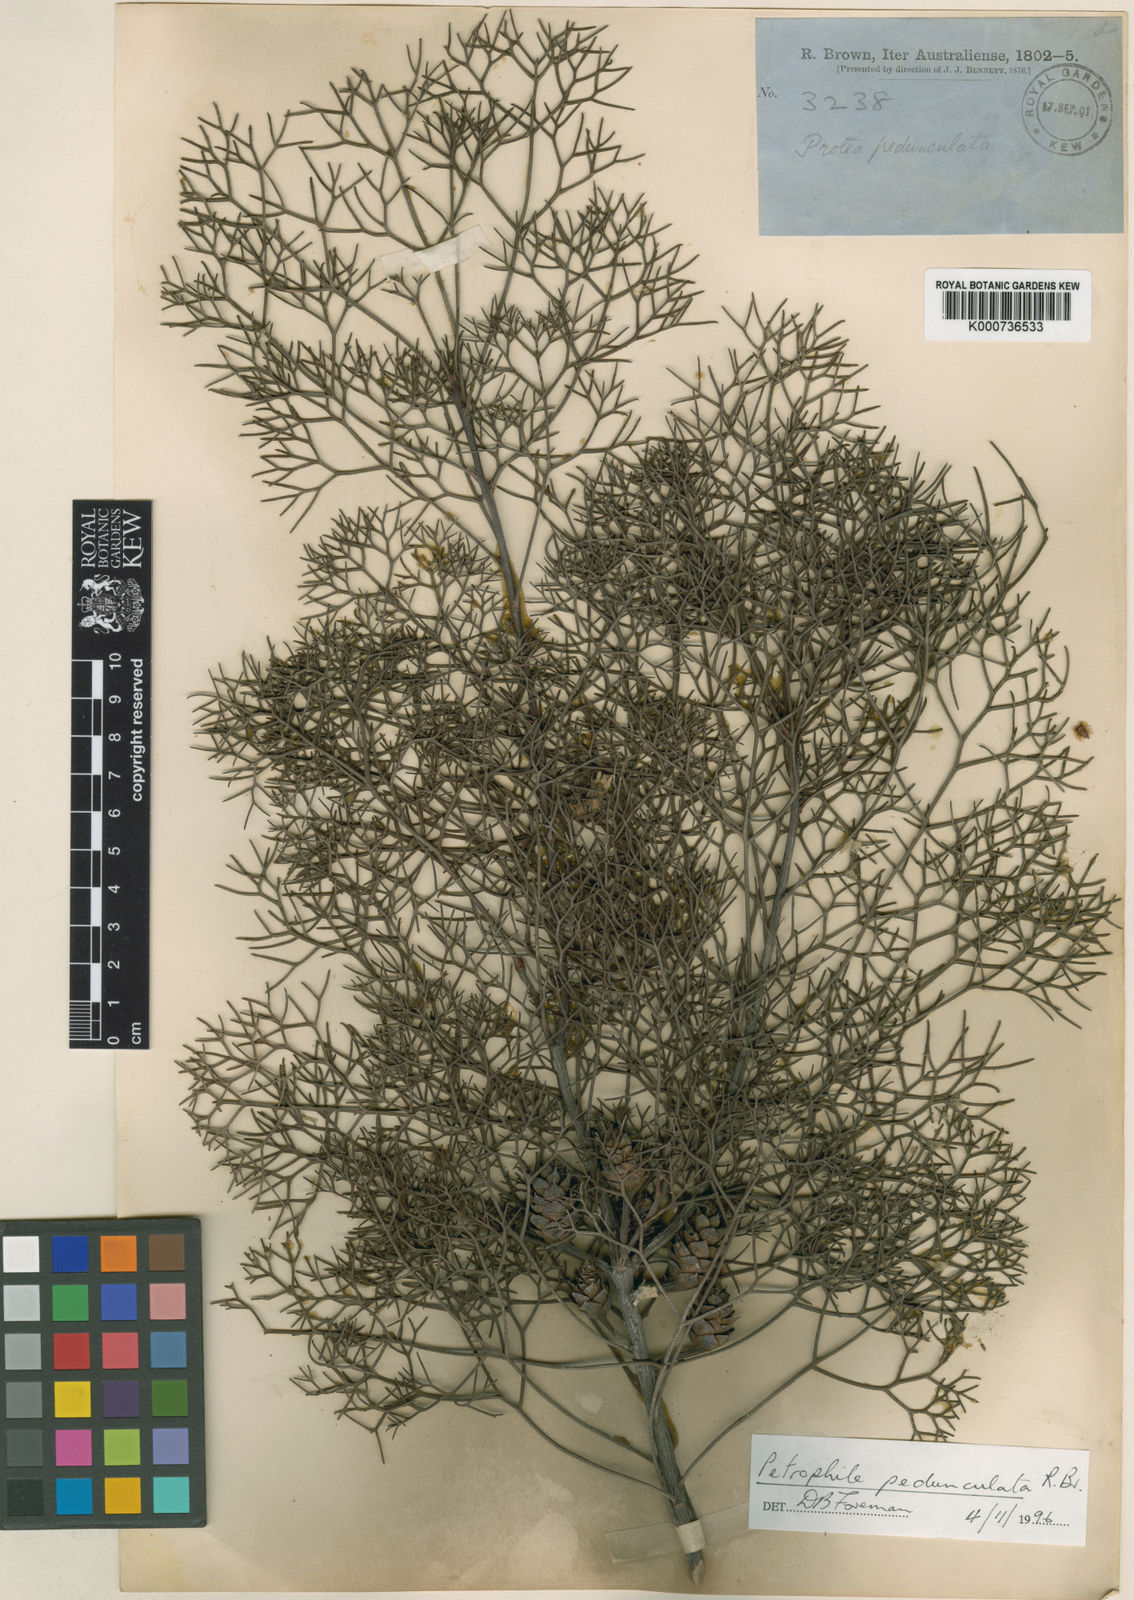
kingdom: Plantae
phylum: Tracheophyta
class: Magnoliopsida
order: Proteales
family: Proteaceae
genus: Petrophile
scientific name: Petrophile
